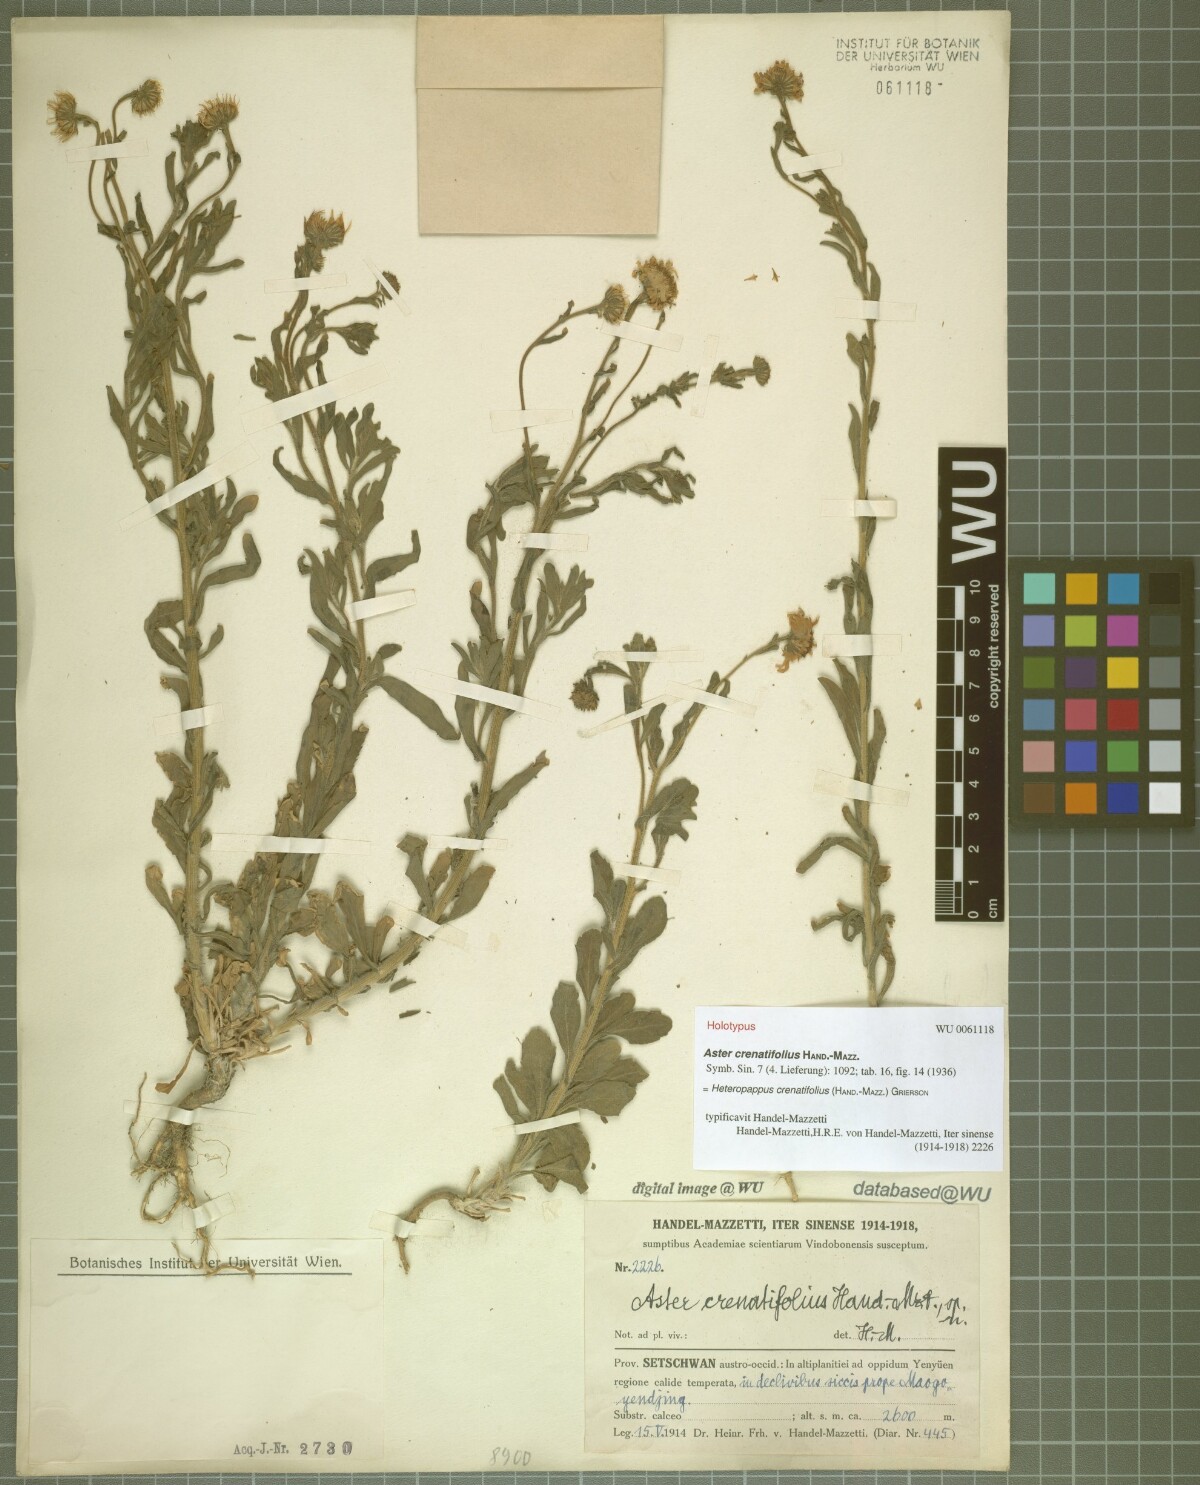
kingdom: Plantae
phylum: Tracheophyta
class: Magnoliopsida
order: Asterales
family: Asteraceae
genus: Heteropappus
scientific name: Heteropappus crenatifolius
